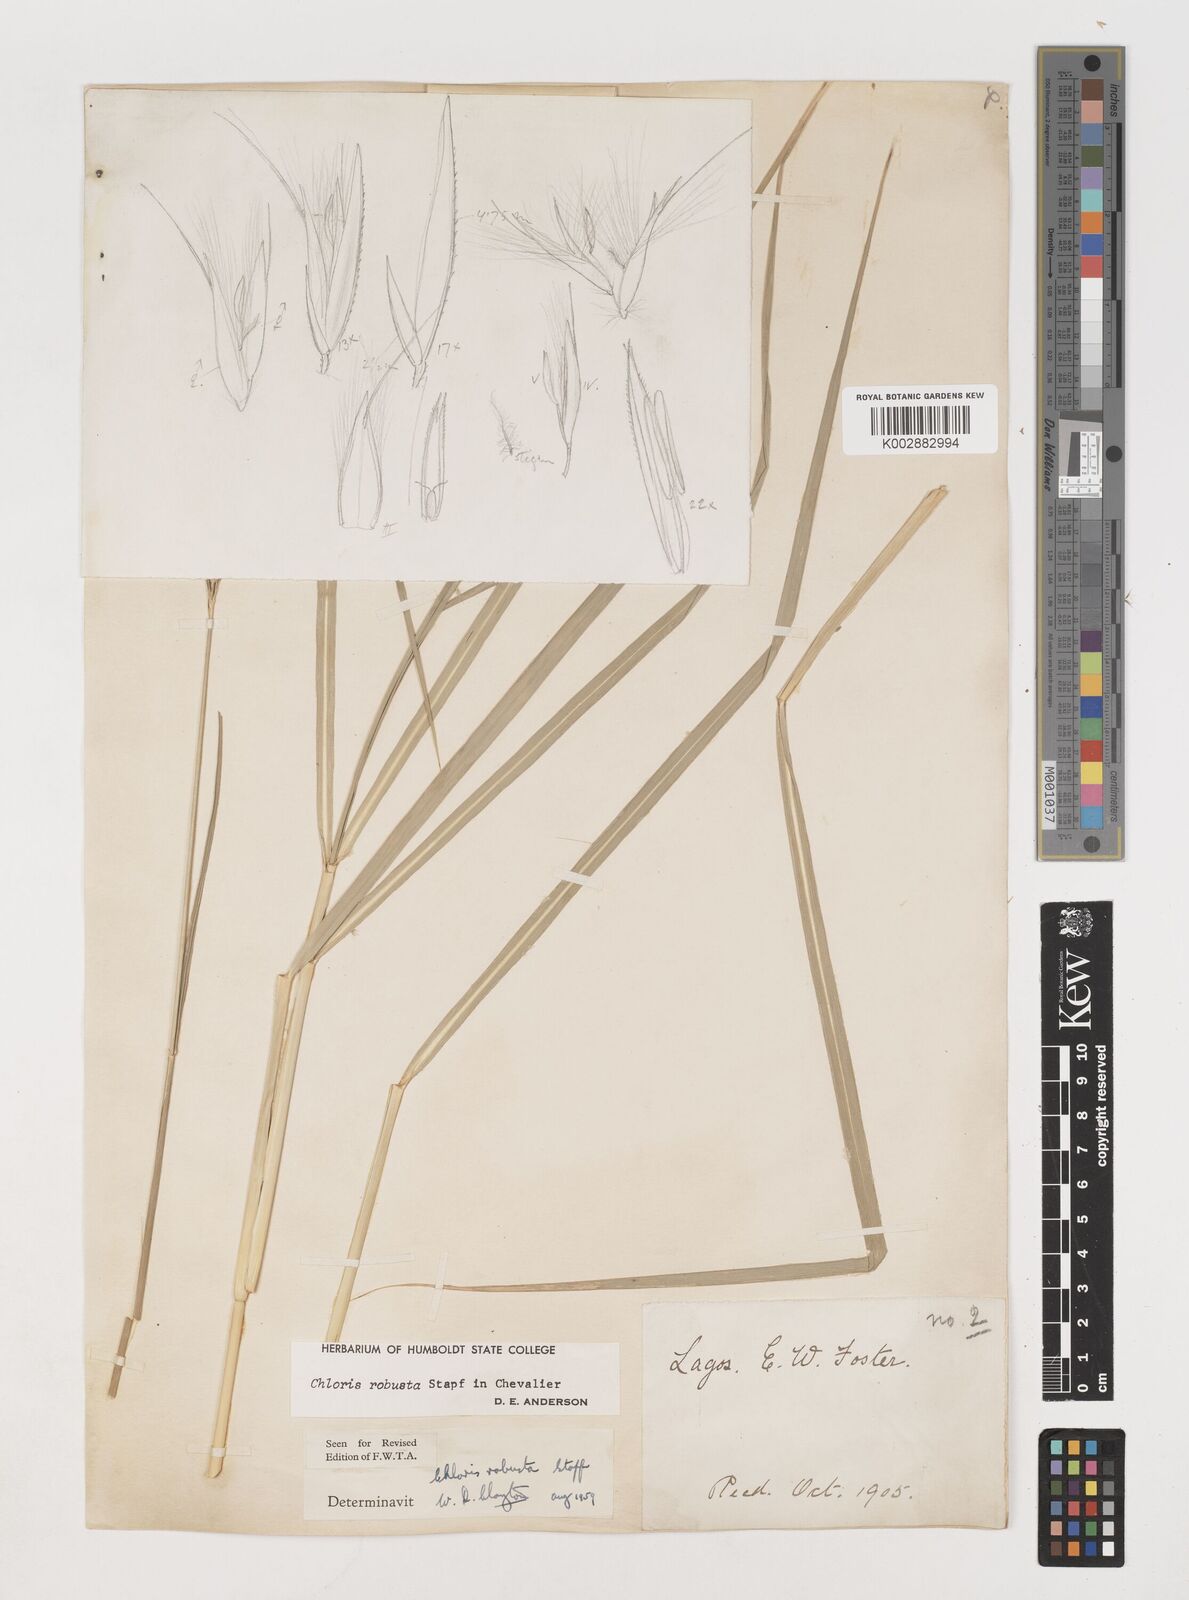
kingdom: Plantae
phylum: Tracheophyta
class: Liliopsida
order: Poales
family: Poaceae
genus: Chloris
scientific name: Chloris robusta
